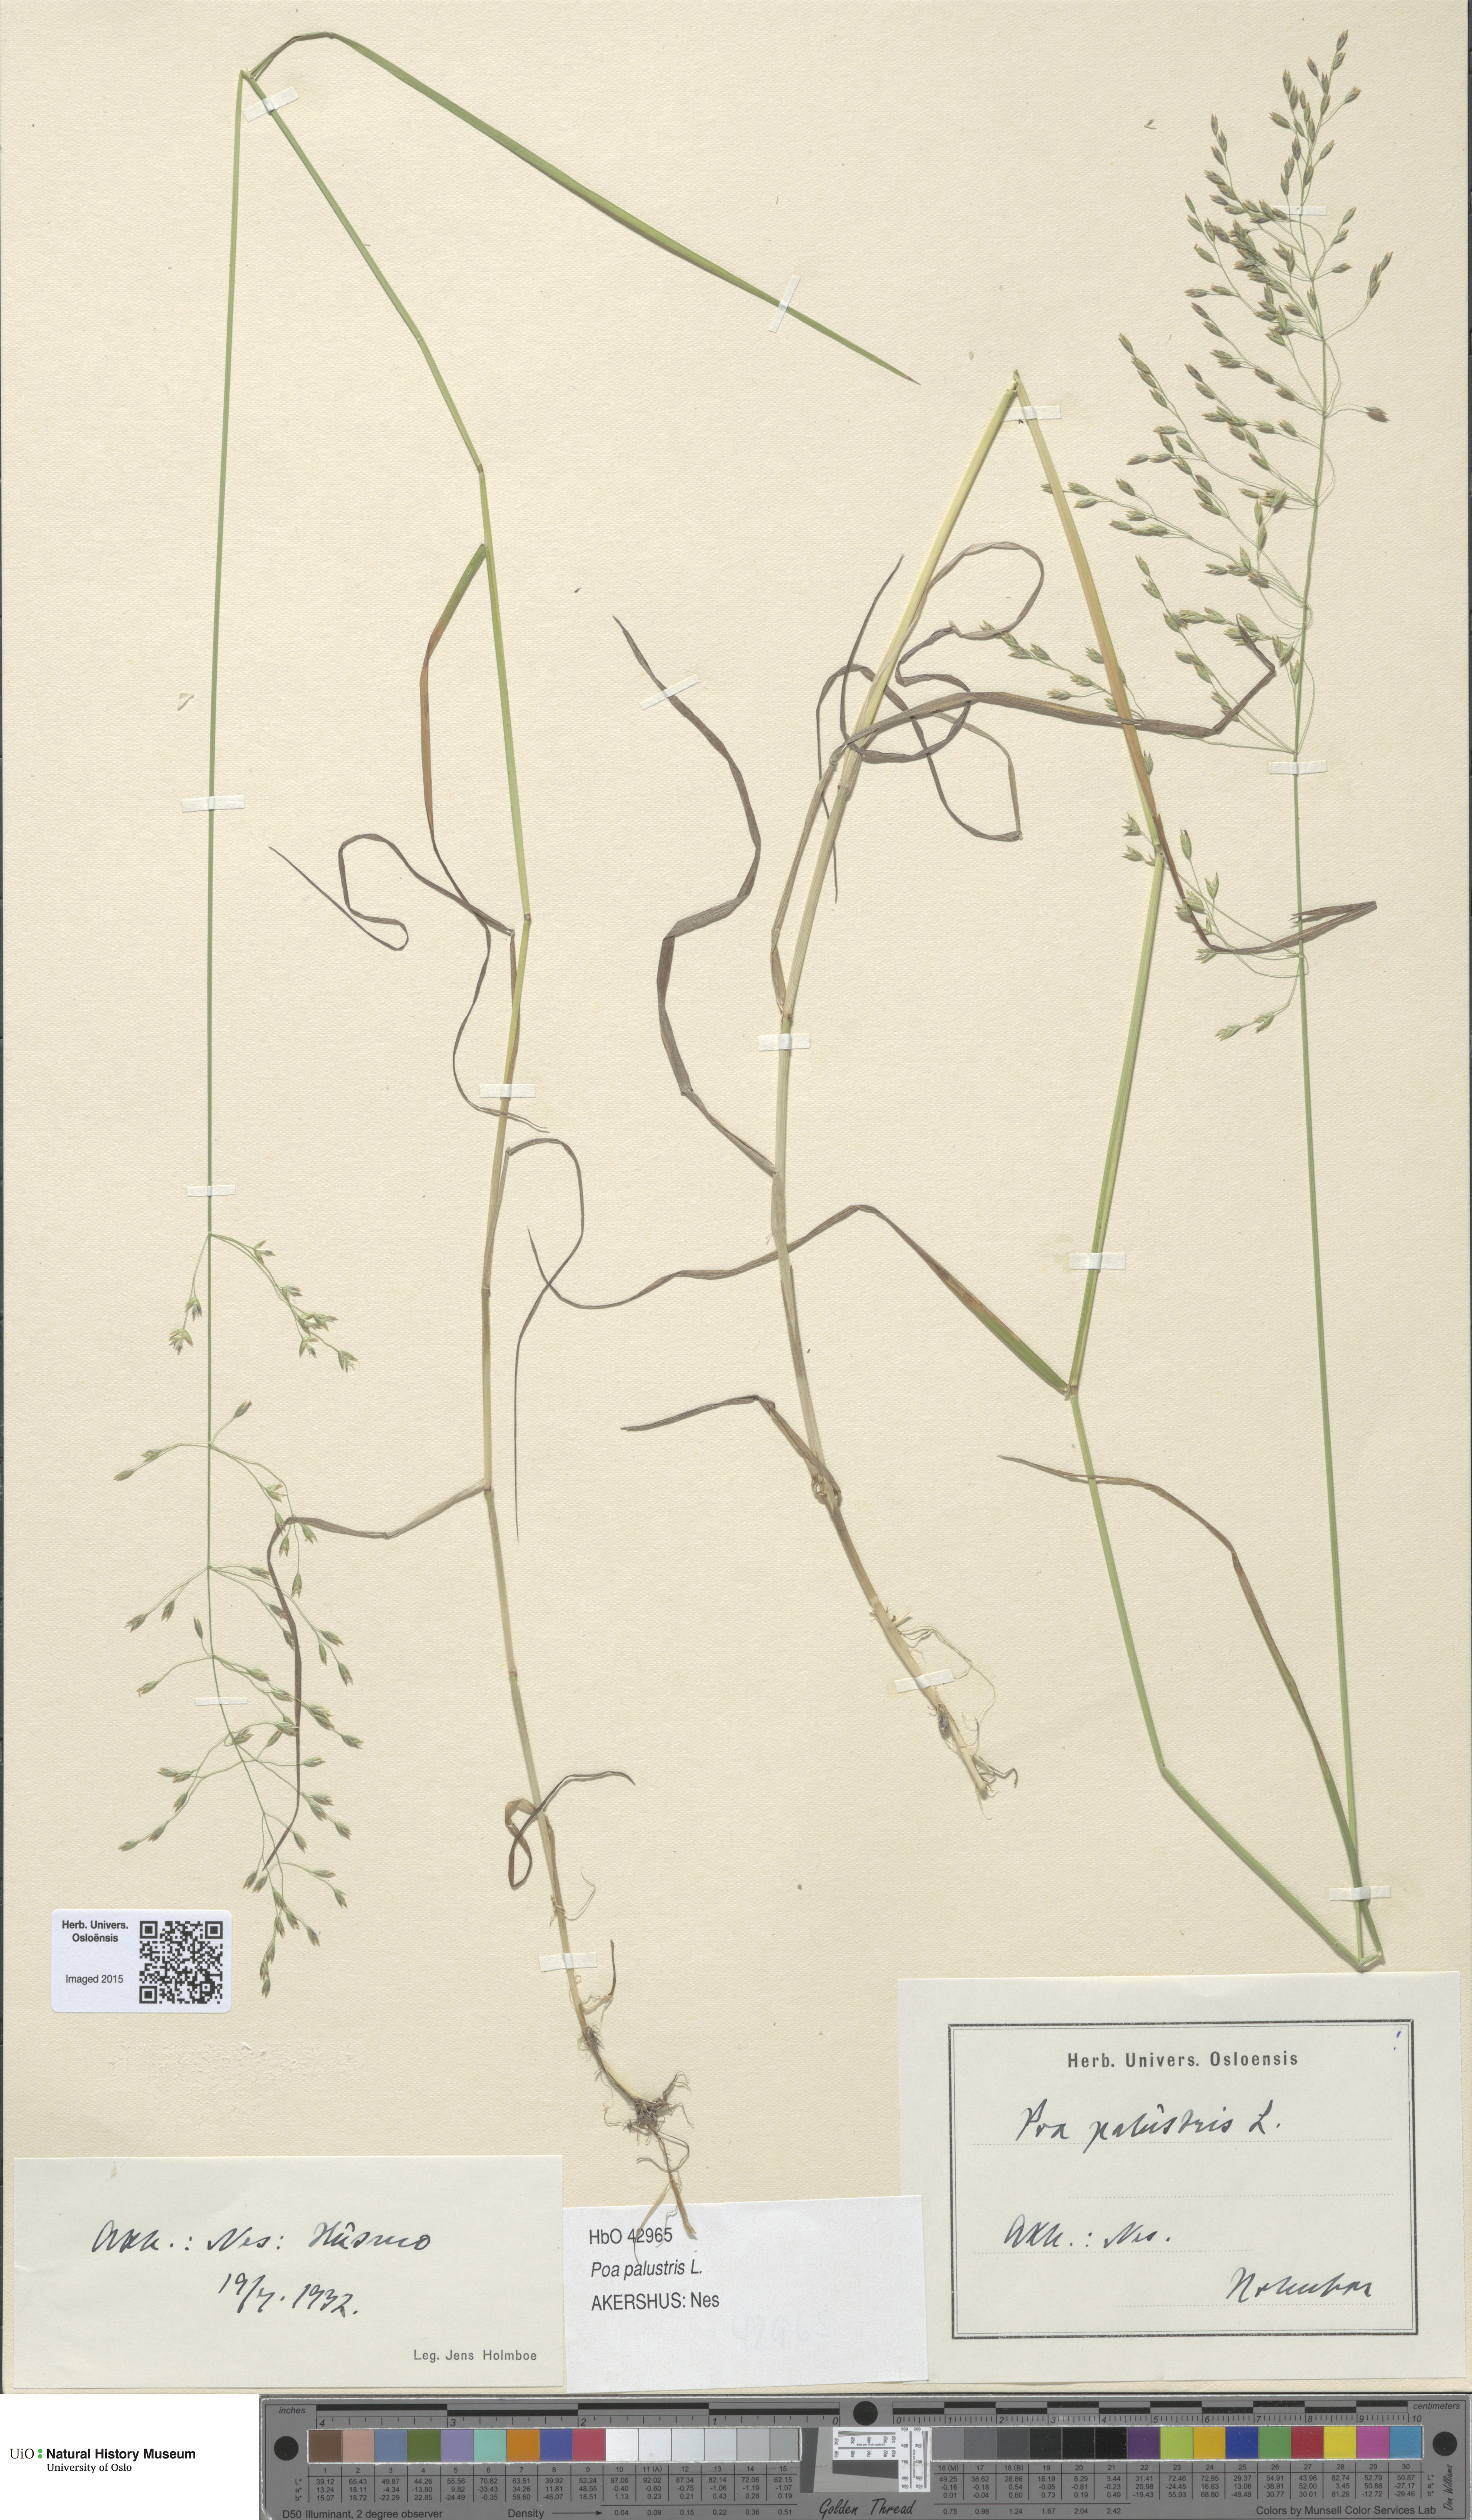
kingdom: Plantae
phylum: Tracheophyta
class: Liliopsida
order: Poales
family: Poaceae
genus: Poa
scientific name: Poa palustris
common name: Swamp meadow-grass
